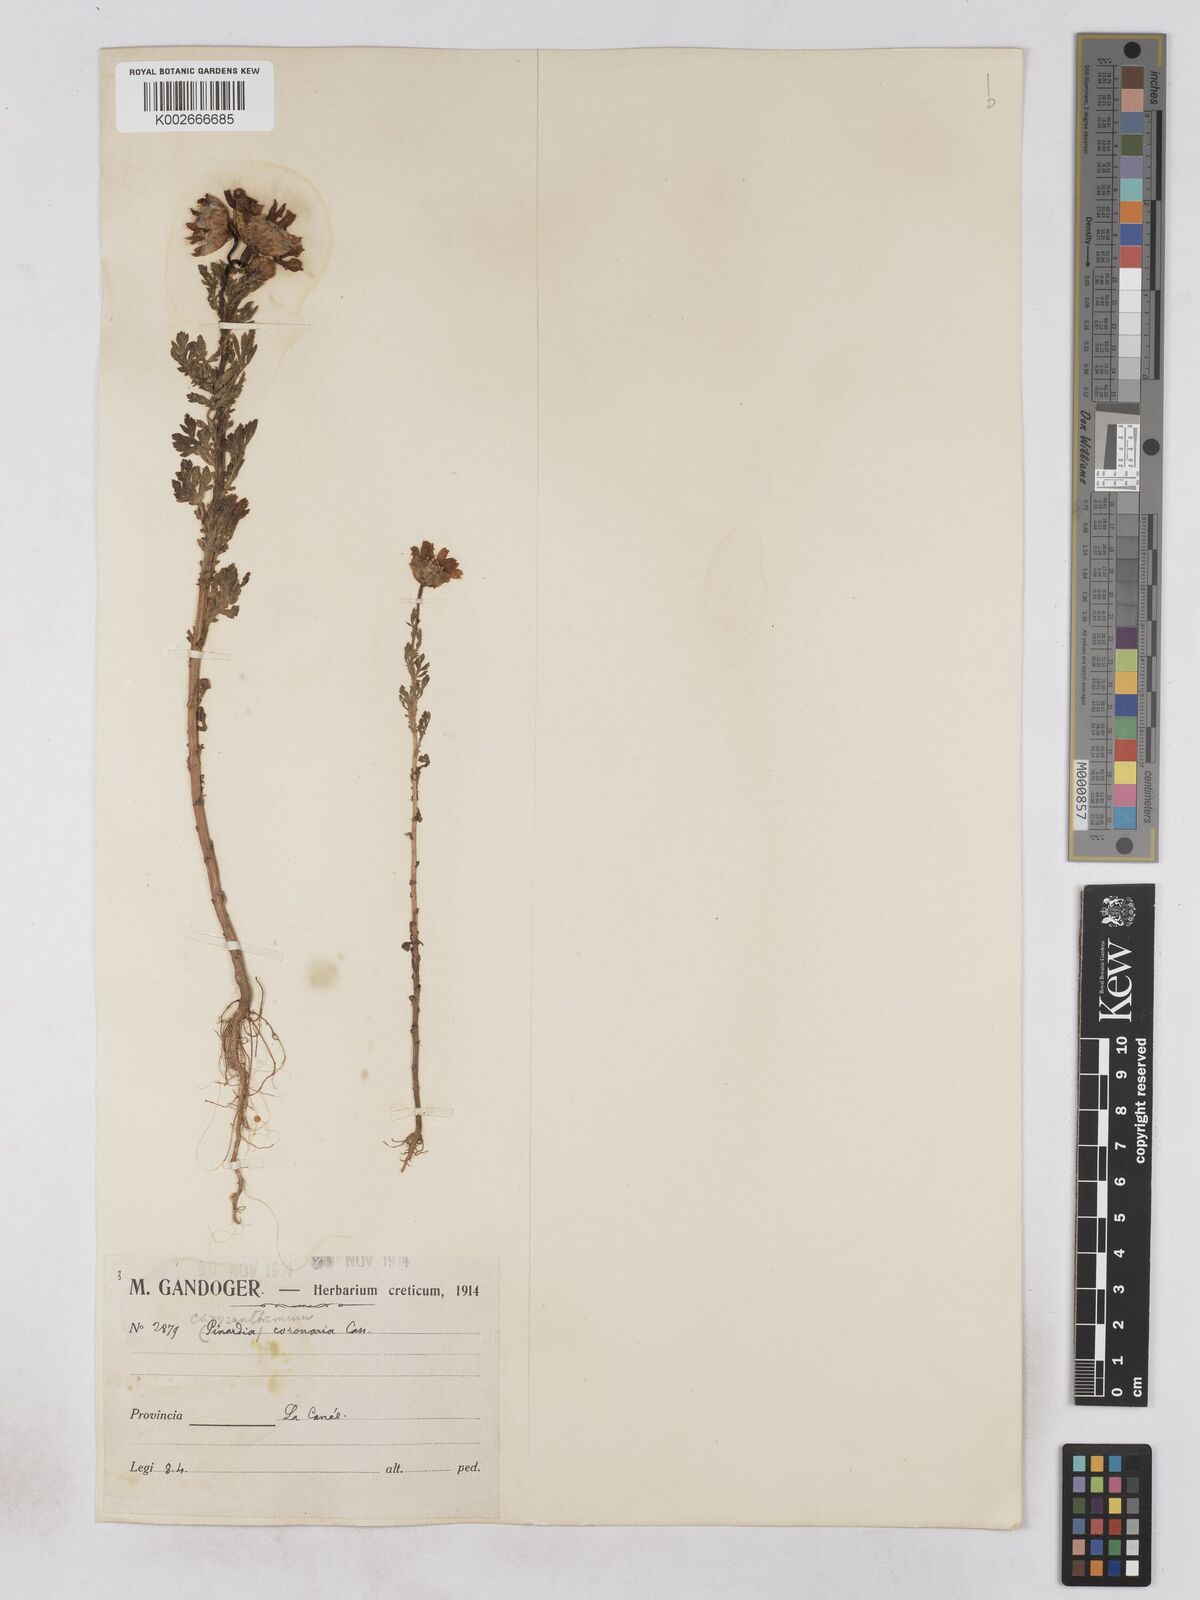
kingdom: Plantae
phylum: Tracheophyta
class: Magnoliopsida
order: Asterales
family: Asteraceae
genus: Glebionis
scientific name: Glebionis coronaria
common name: Crowndaisy
